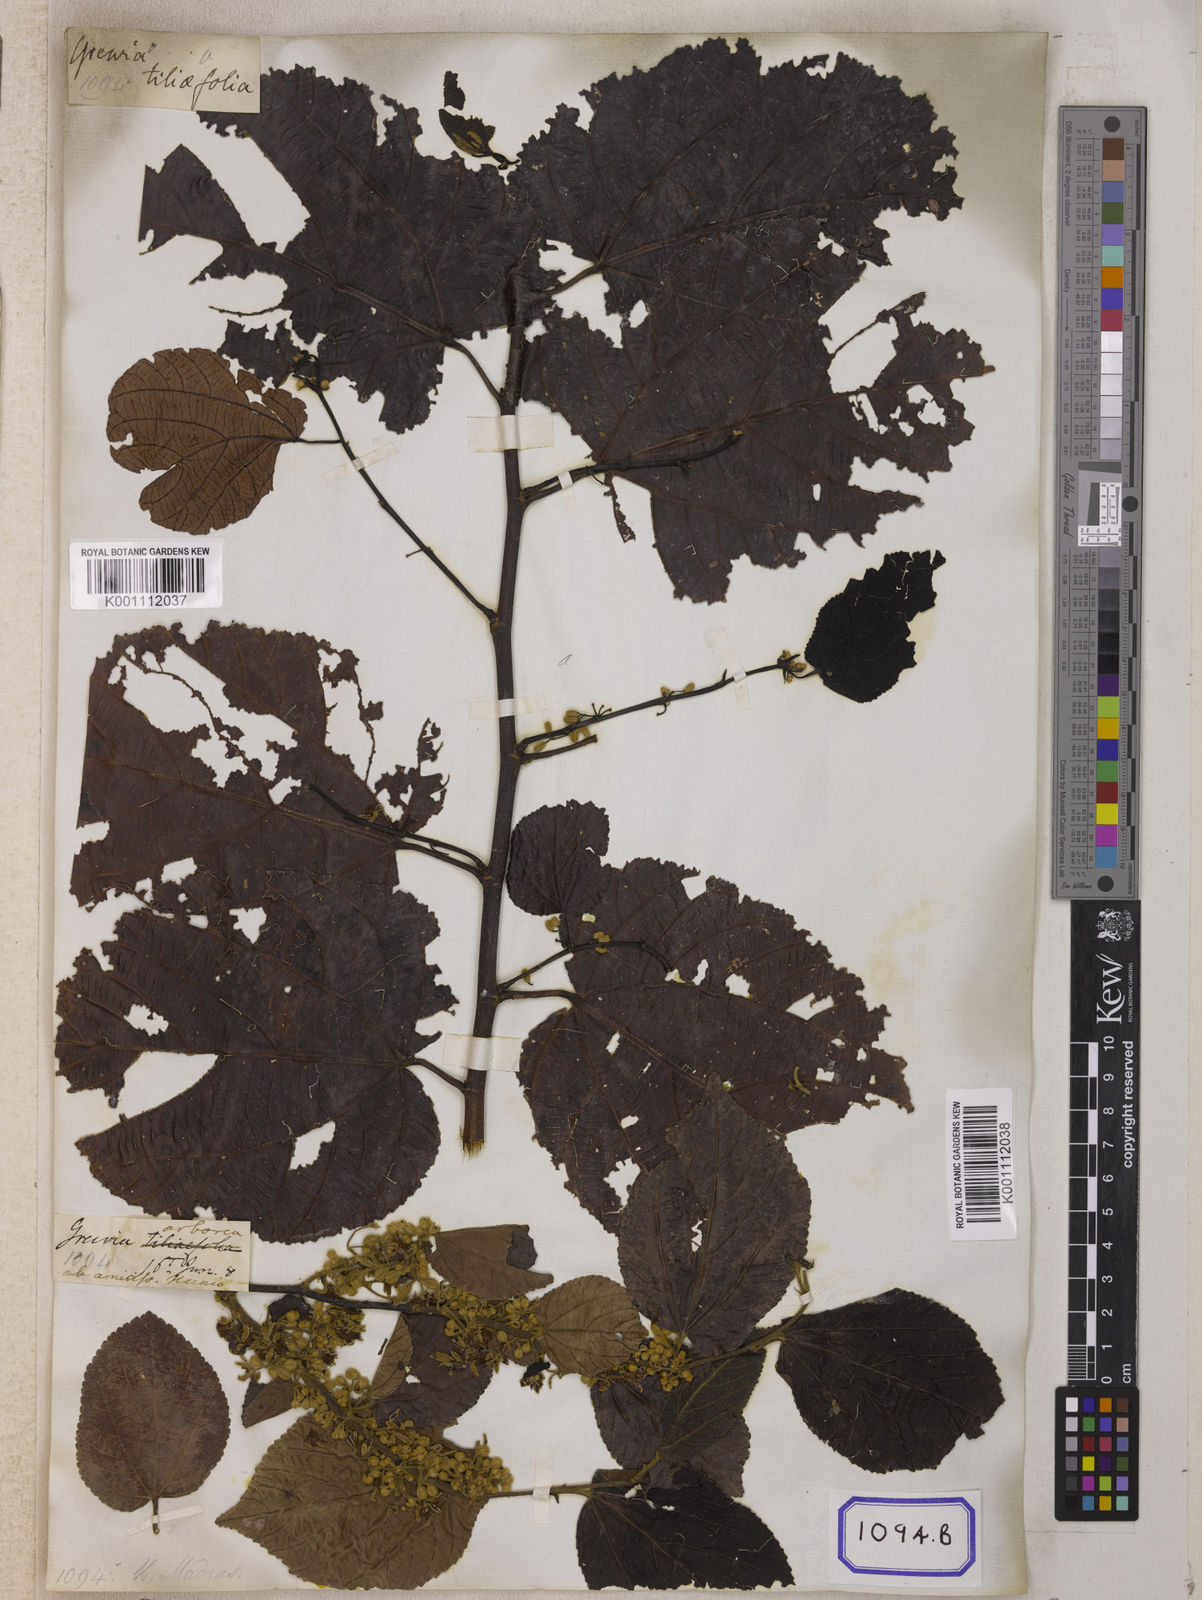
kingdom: Plantae
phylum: Tracheophyta
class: Magnoliopsida
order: Malvales
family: Malvaceae
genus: Grewia
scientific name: Grewia tiliifolia
